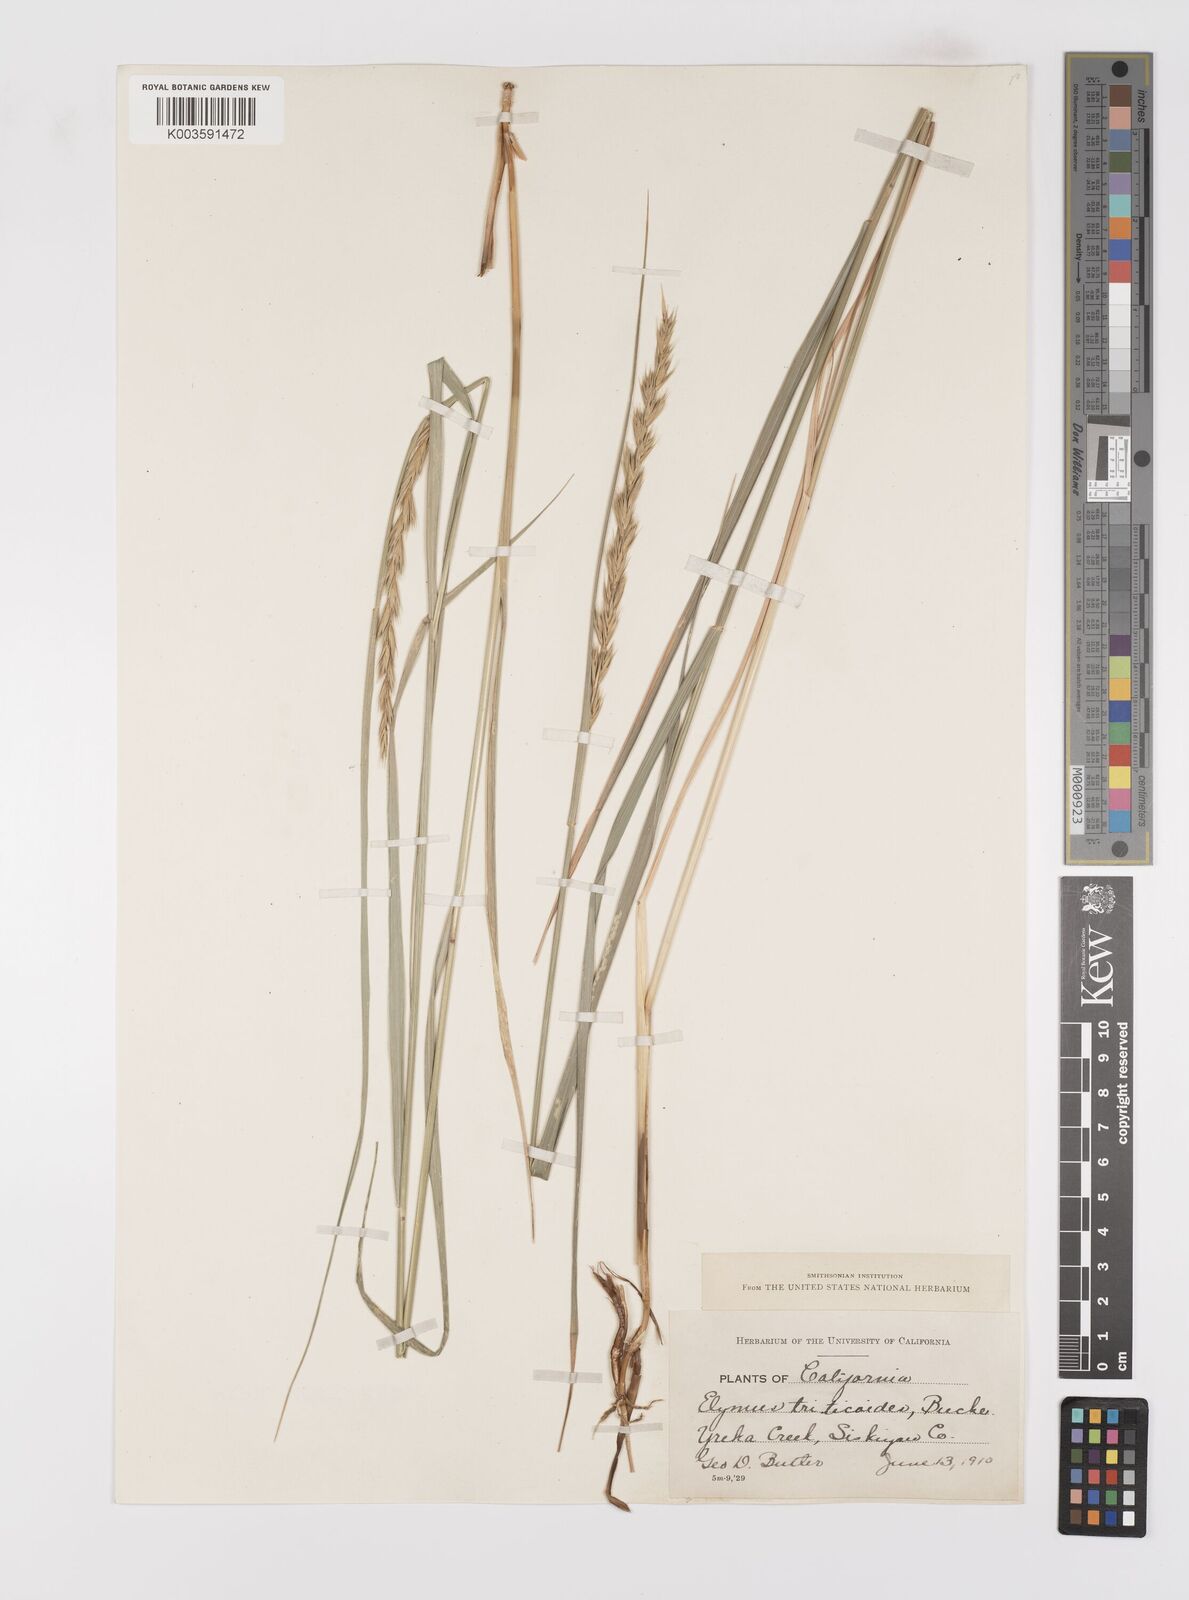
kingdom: Plantae
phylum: Tracheophyta
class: Liliopsida
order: Poales
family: Poaceae
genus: Leymus
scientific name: Leymus triticoides
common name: Beardless wild rye
